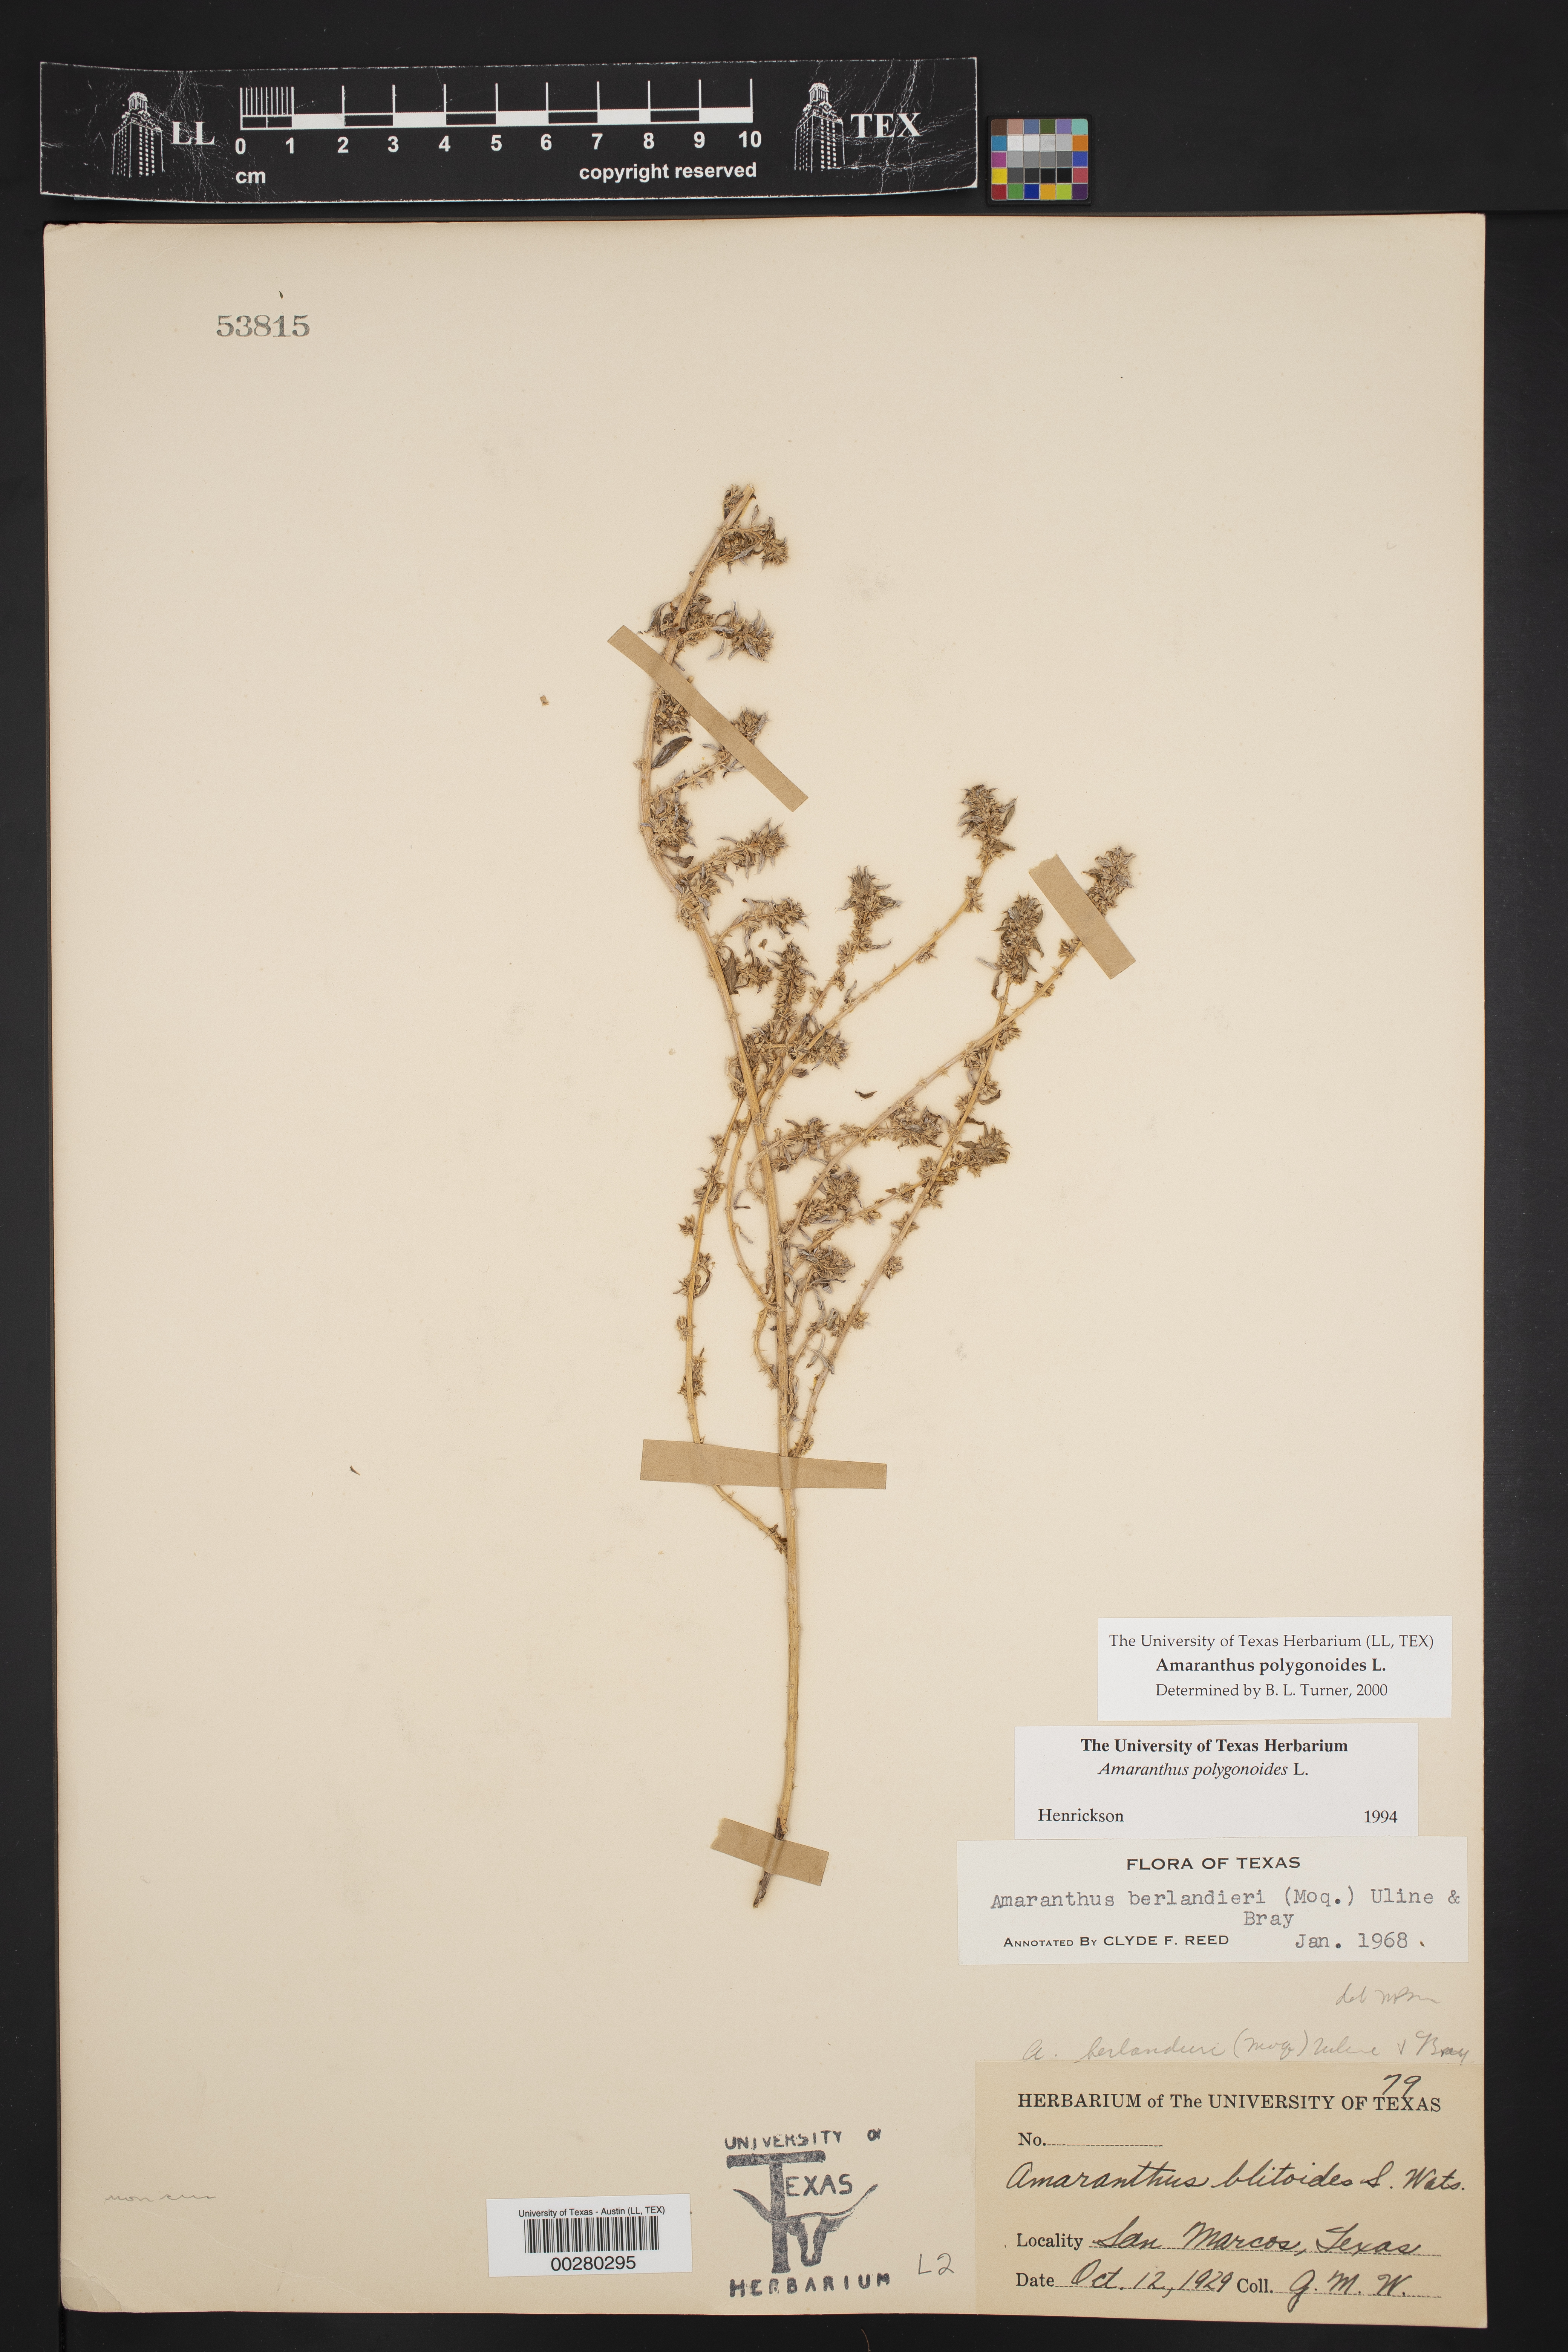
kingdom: Plantae
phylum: Tracheophyta
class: Magnoliopsida
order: Caryophyllales
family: Amaranthaceae
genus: Amaranthus
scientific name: Amaranthus polygonoides
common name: Tropical amaranth
